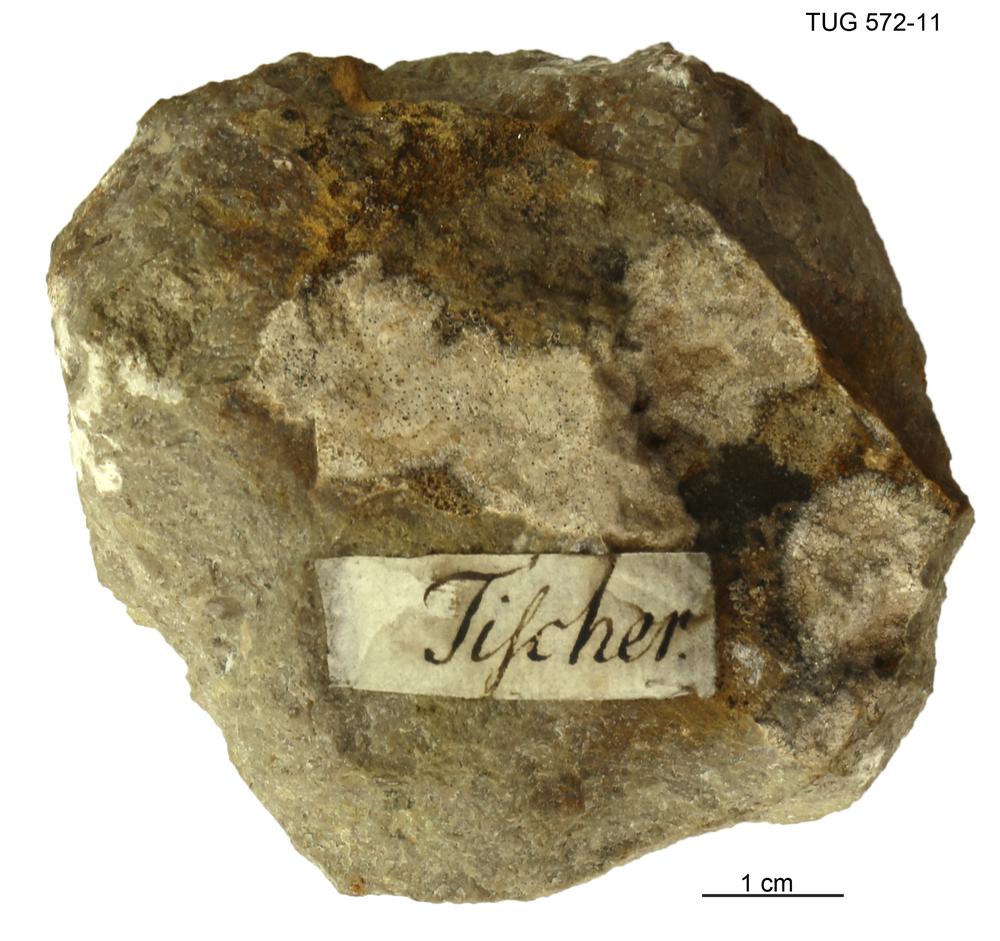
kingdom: Animalia
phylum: Arthropoda
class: Trilobita
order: Asaphida
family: Asaphidae
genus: Asaphus
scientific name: Asaphus expansus
